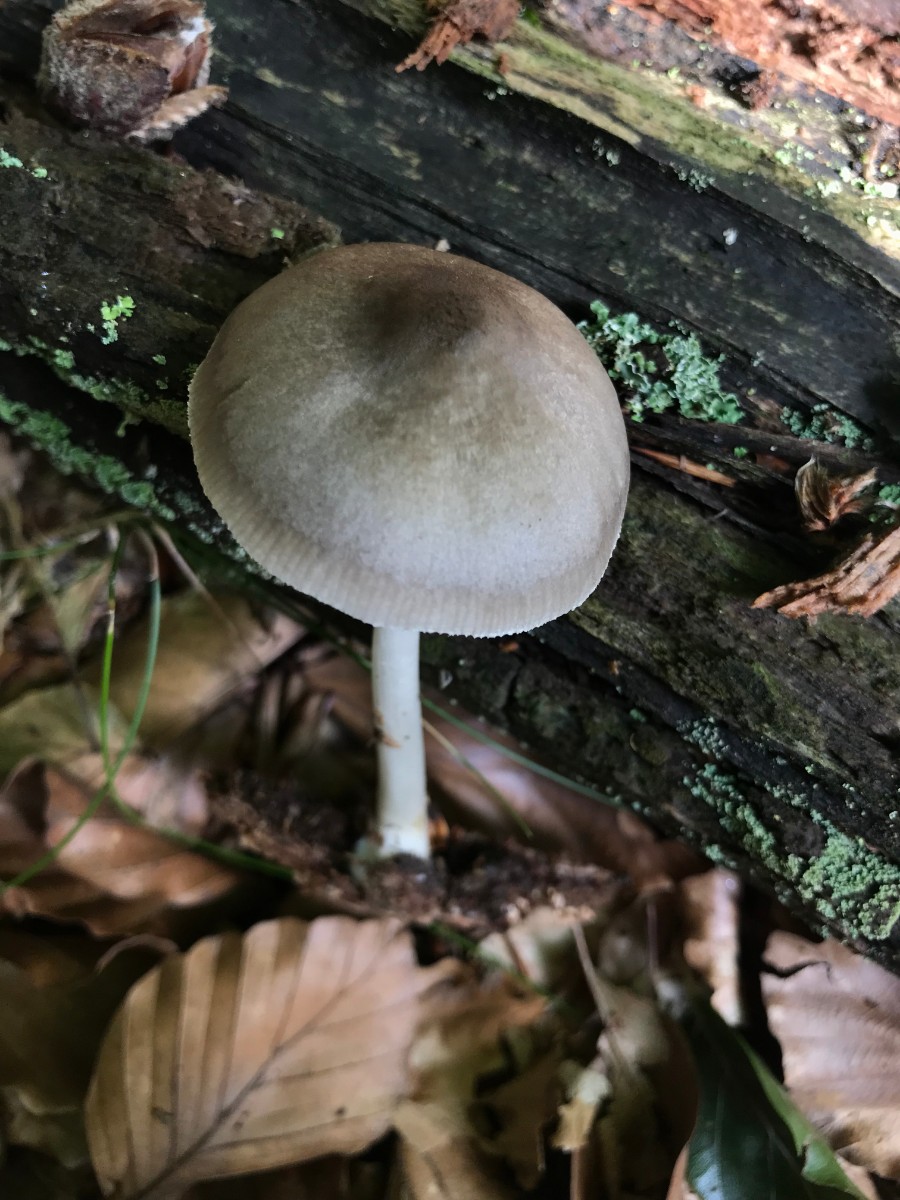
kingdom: Fungi
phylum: Basidiomycota
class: Agaricomycetes
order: Agaricales
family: Pluteaceae
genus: Pluteus
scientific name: Pluteus salicinus
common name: stiv skærmhat
